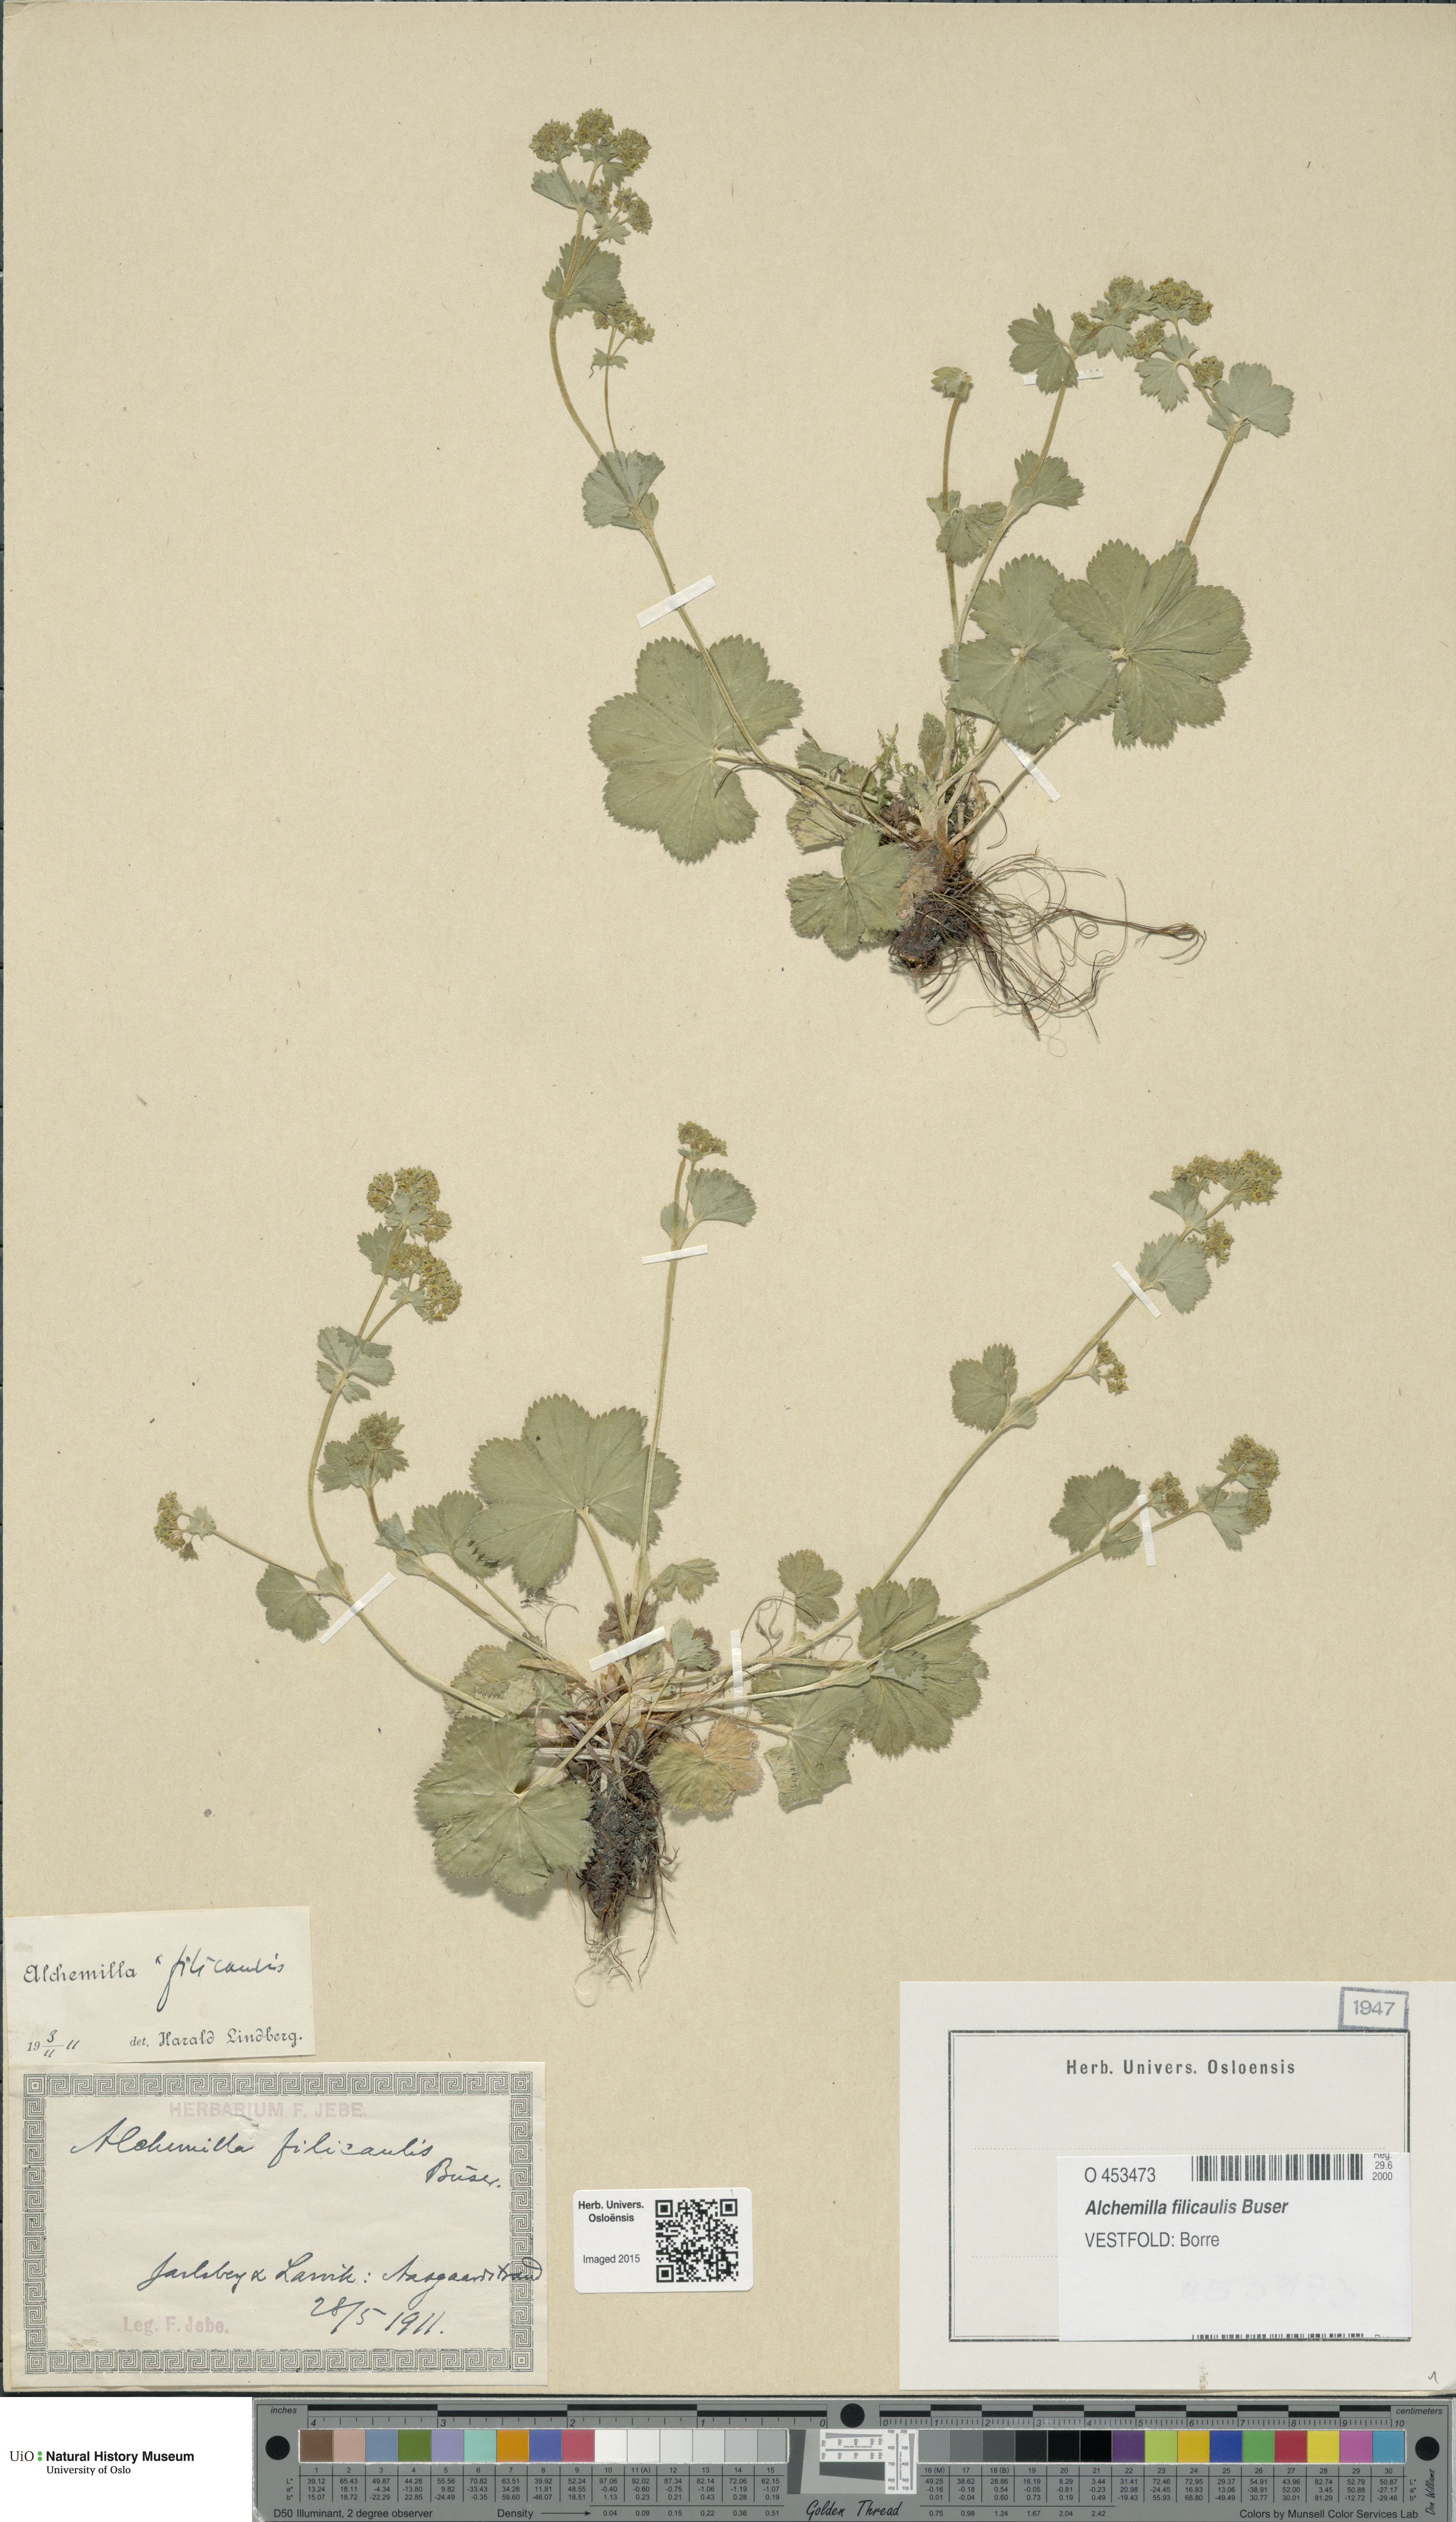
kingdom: Plantae
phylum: Tracheophyta
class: Magnoliopsida
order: Rosales
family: Rosaceae
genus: Alchemilla
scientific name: Alchemilla filicaulis
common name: Hairy lady's-mantle
